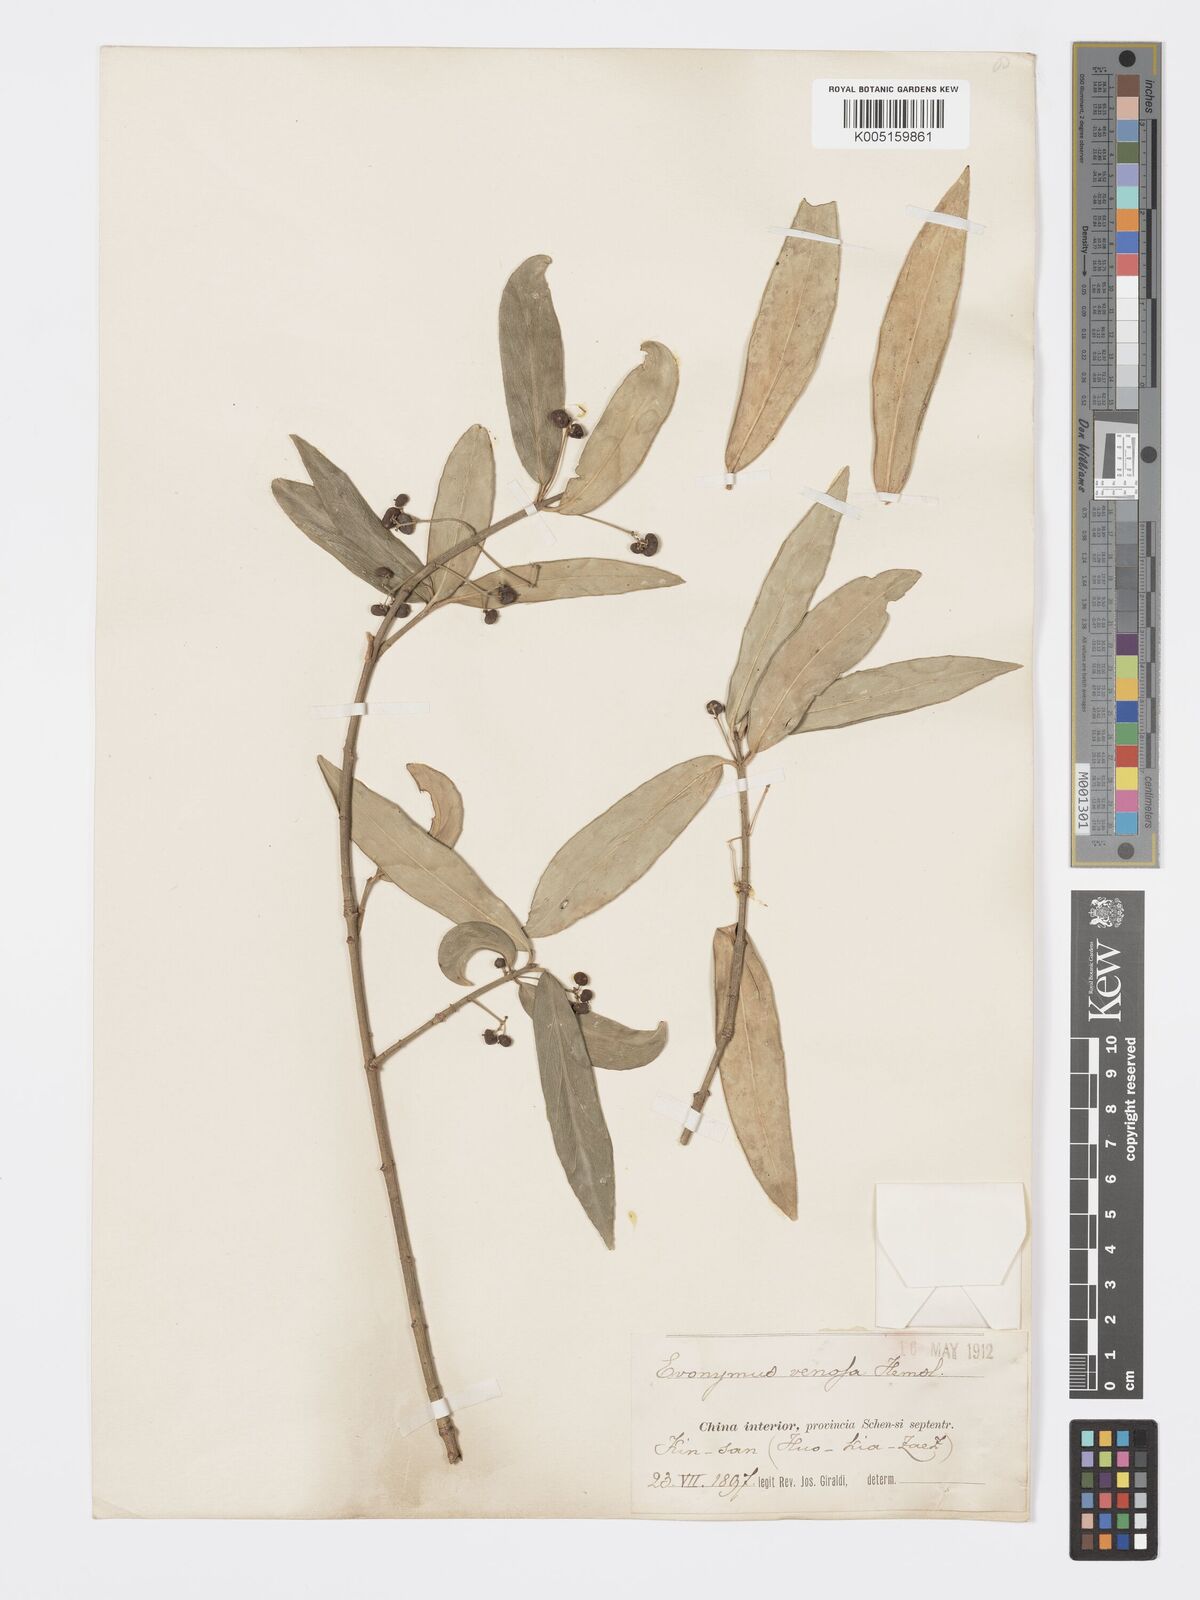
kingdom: Plantae
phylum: Tracheophyta
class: Magnoliopsida
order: Celastrales
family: Celastraceae
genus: Euonymus
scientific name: Euonymus venosus
